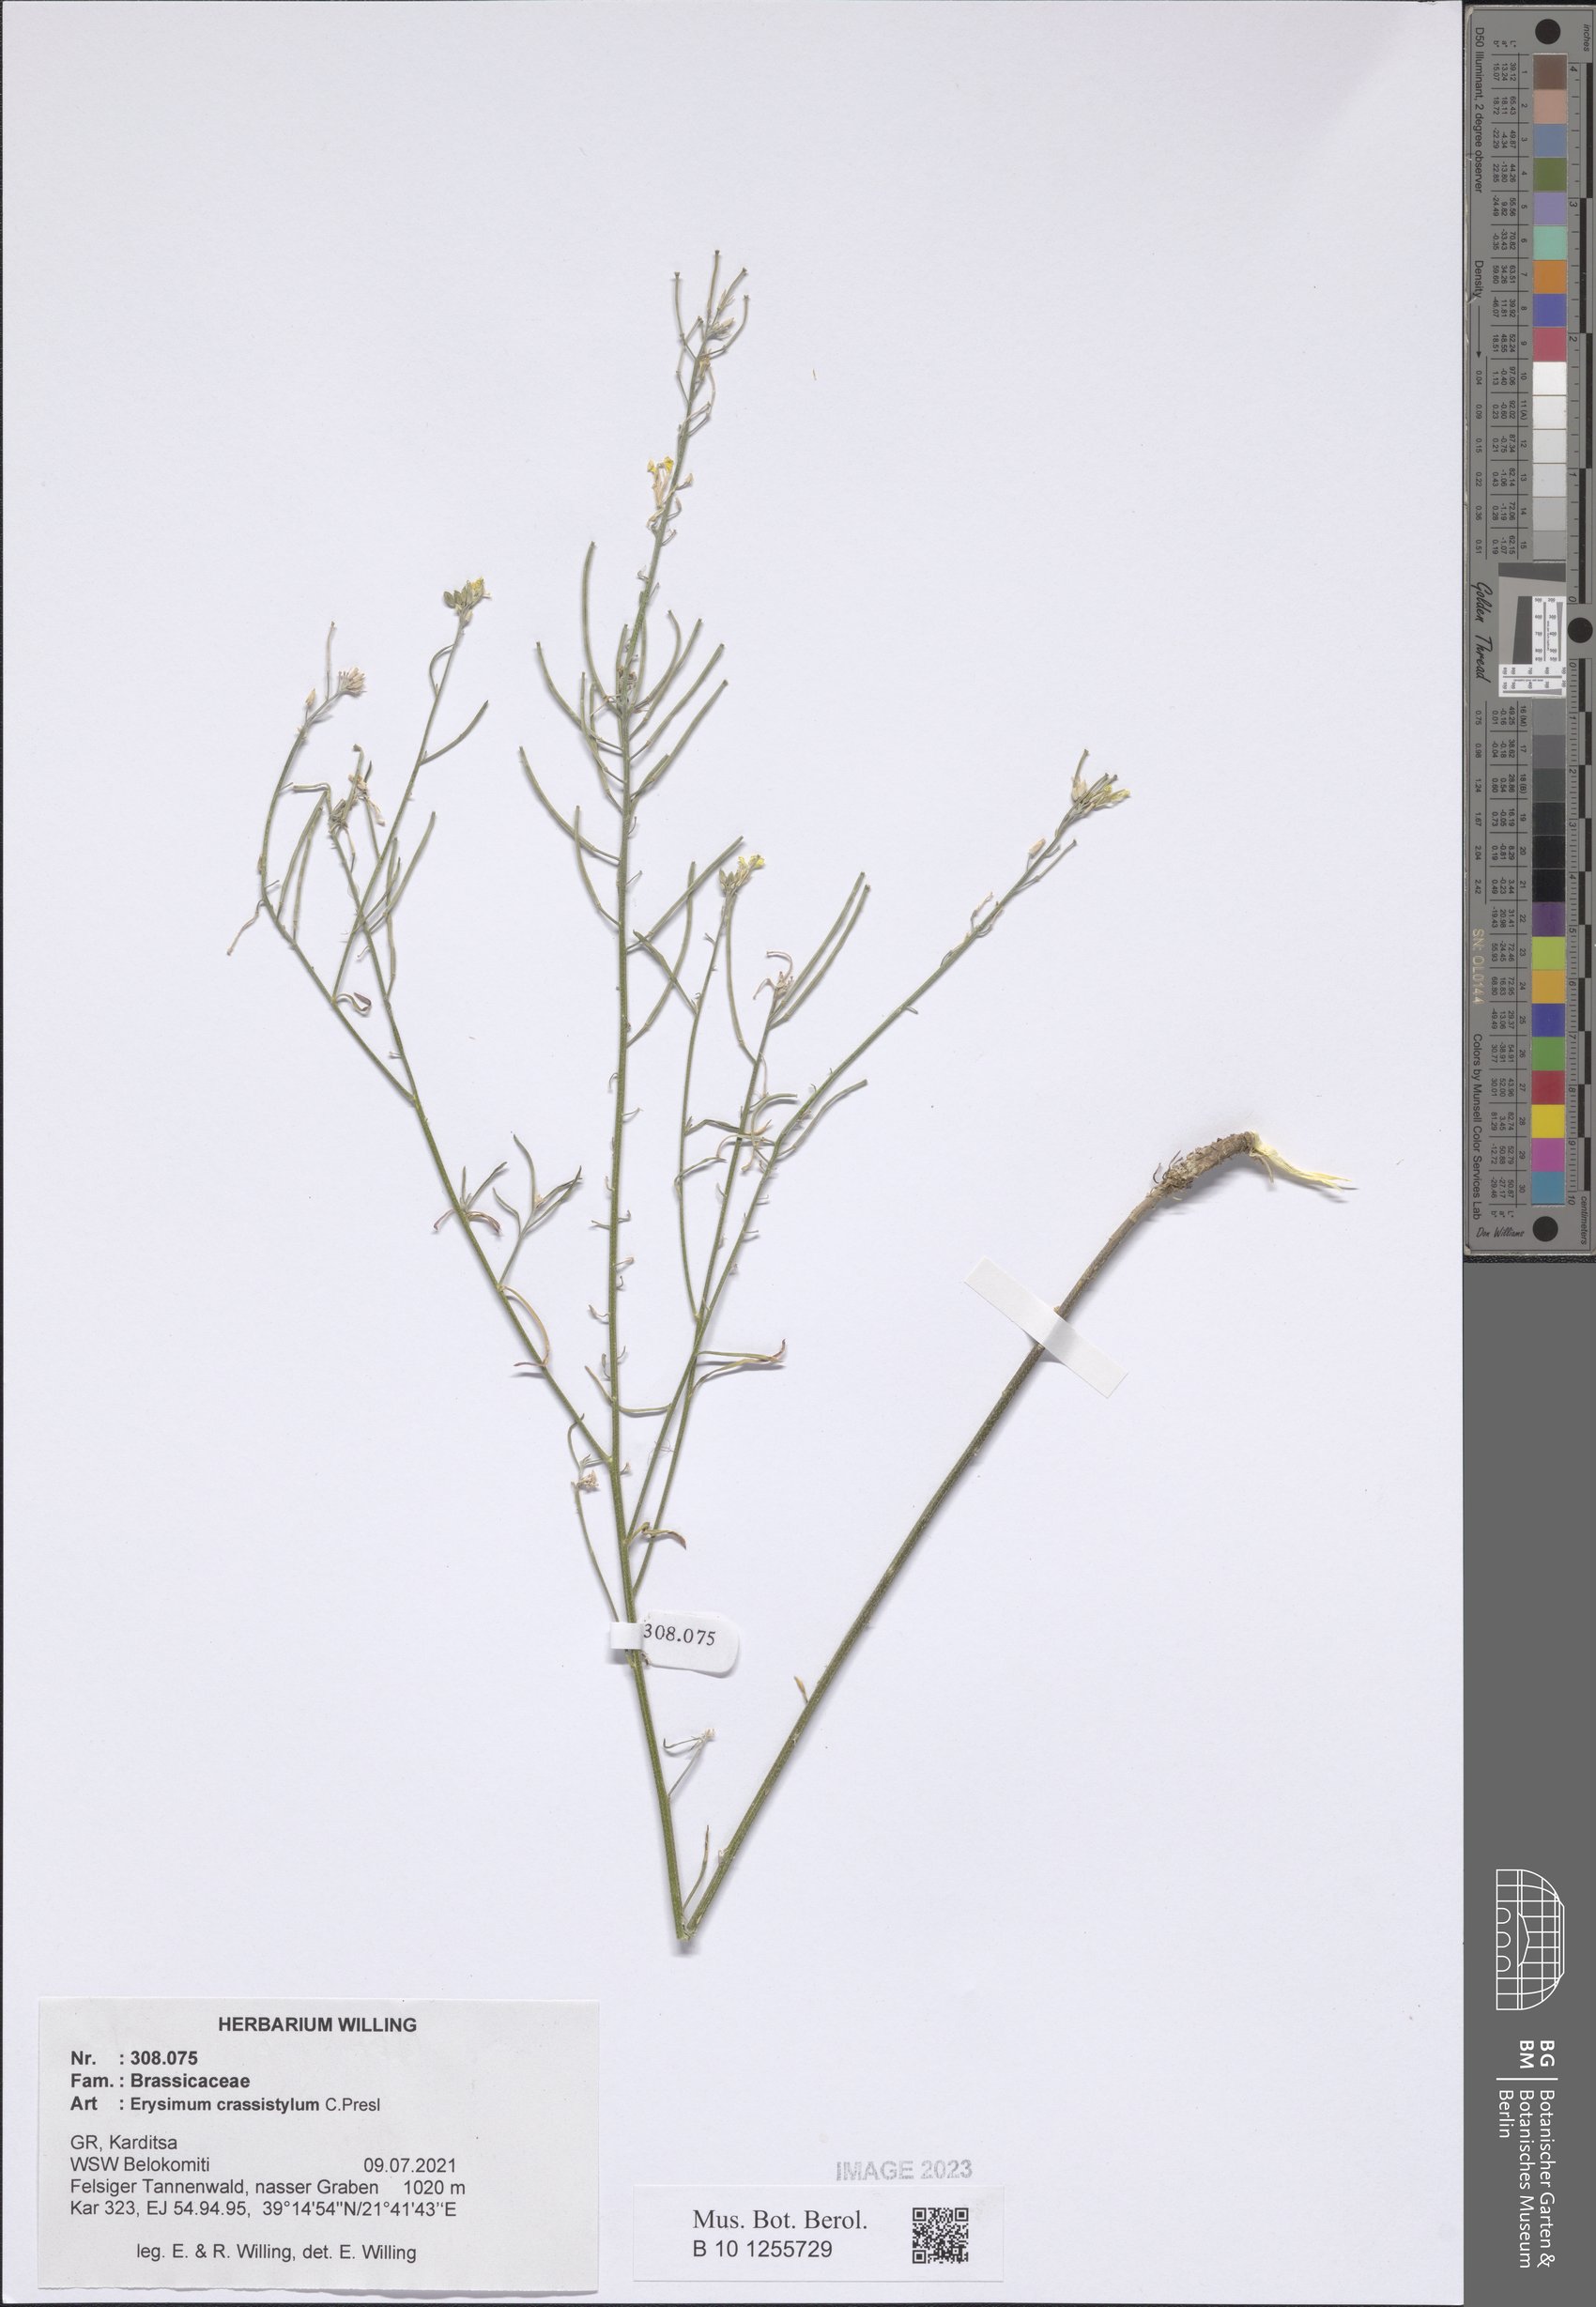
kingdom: Plantae
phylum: Tracheophyta
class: Magnoliopsida
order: Brassicales
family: Brassicaceae
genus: Erysimum
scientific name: Erysimum crassistylum
